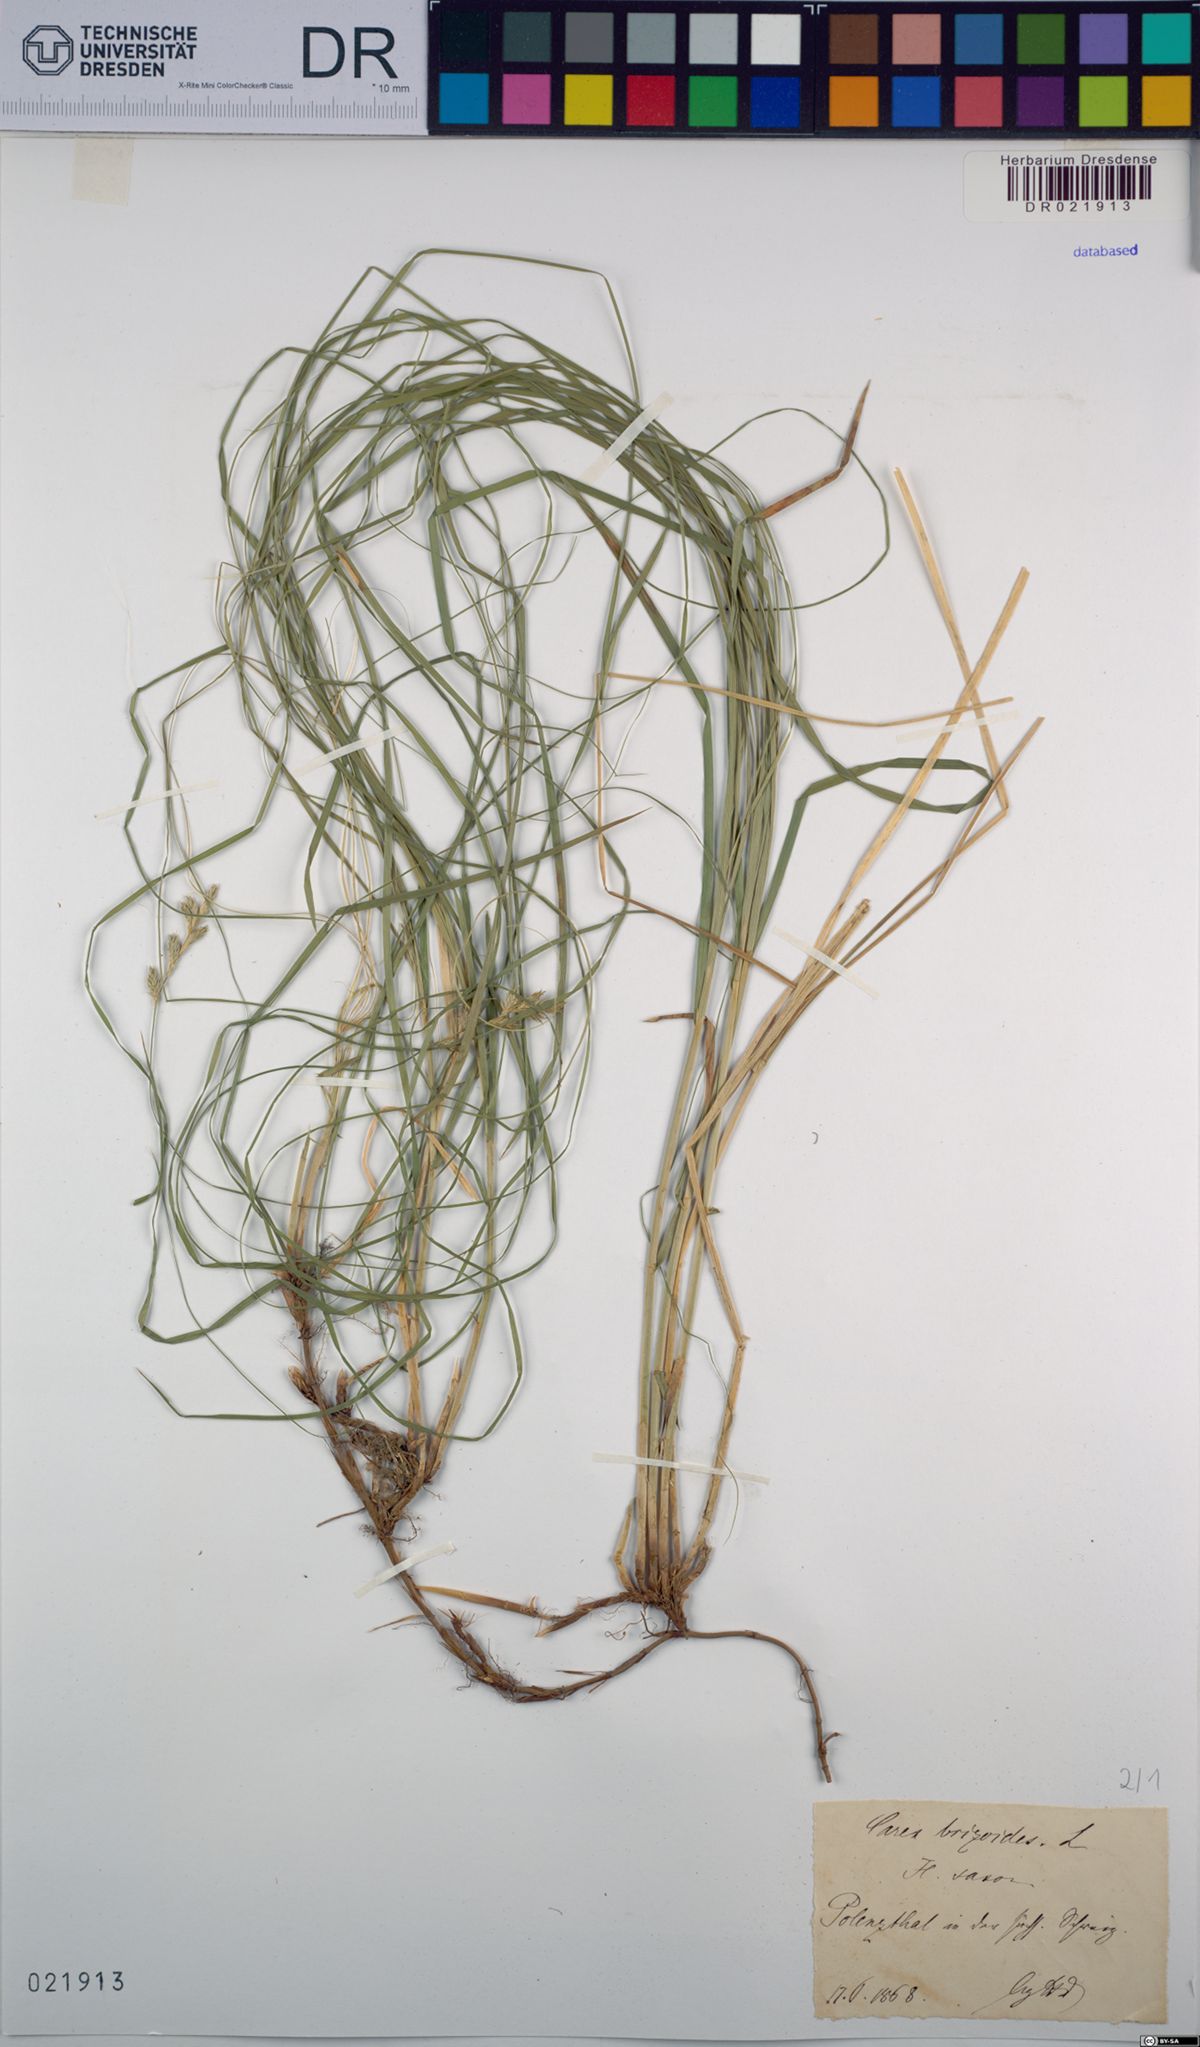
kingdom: Plantae
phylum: Tracheophyta
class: Liliopsida
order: Poales
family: Cyperaceae
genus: Carex
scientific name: Carex brizoides
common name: Quaking-grass sedge
